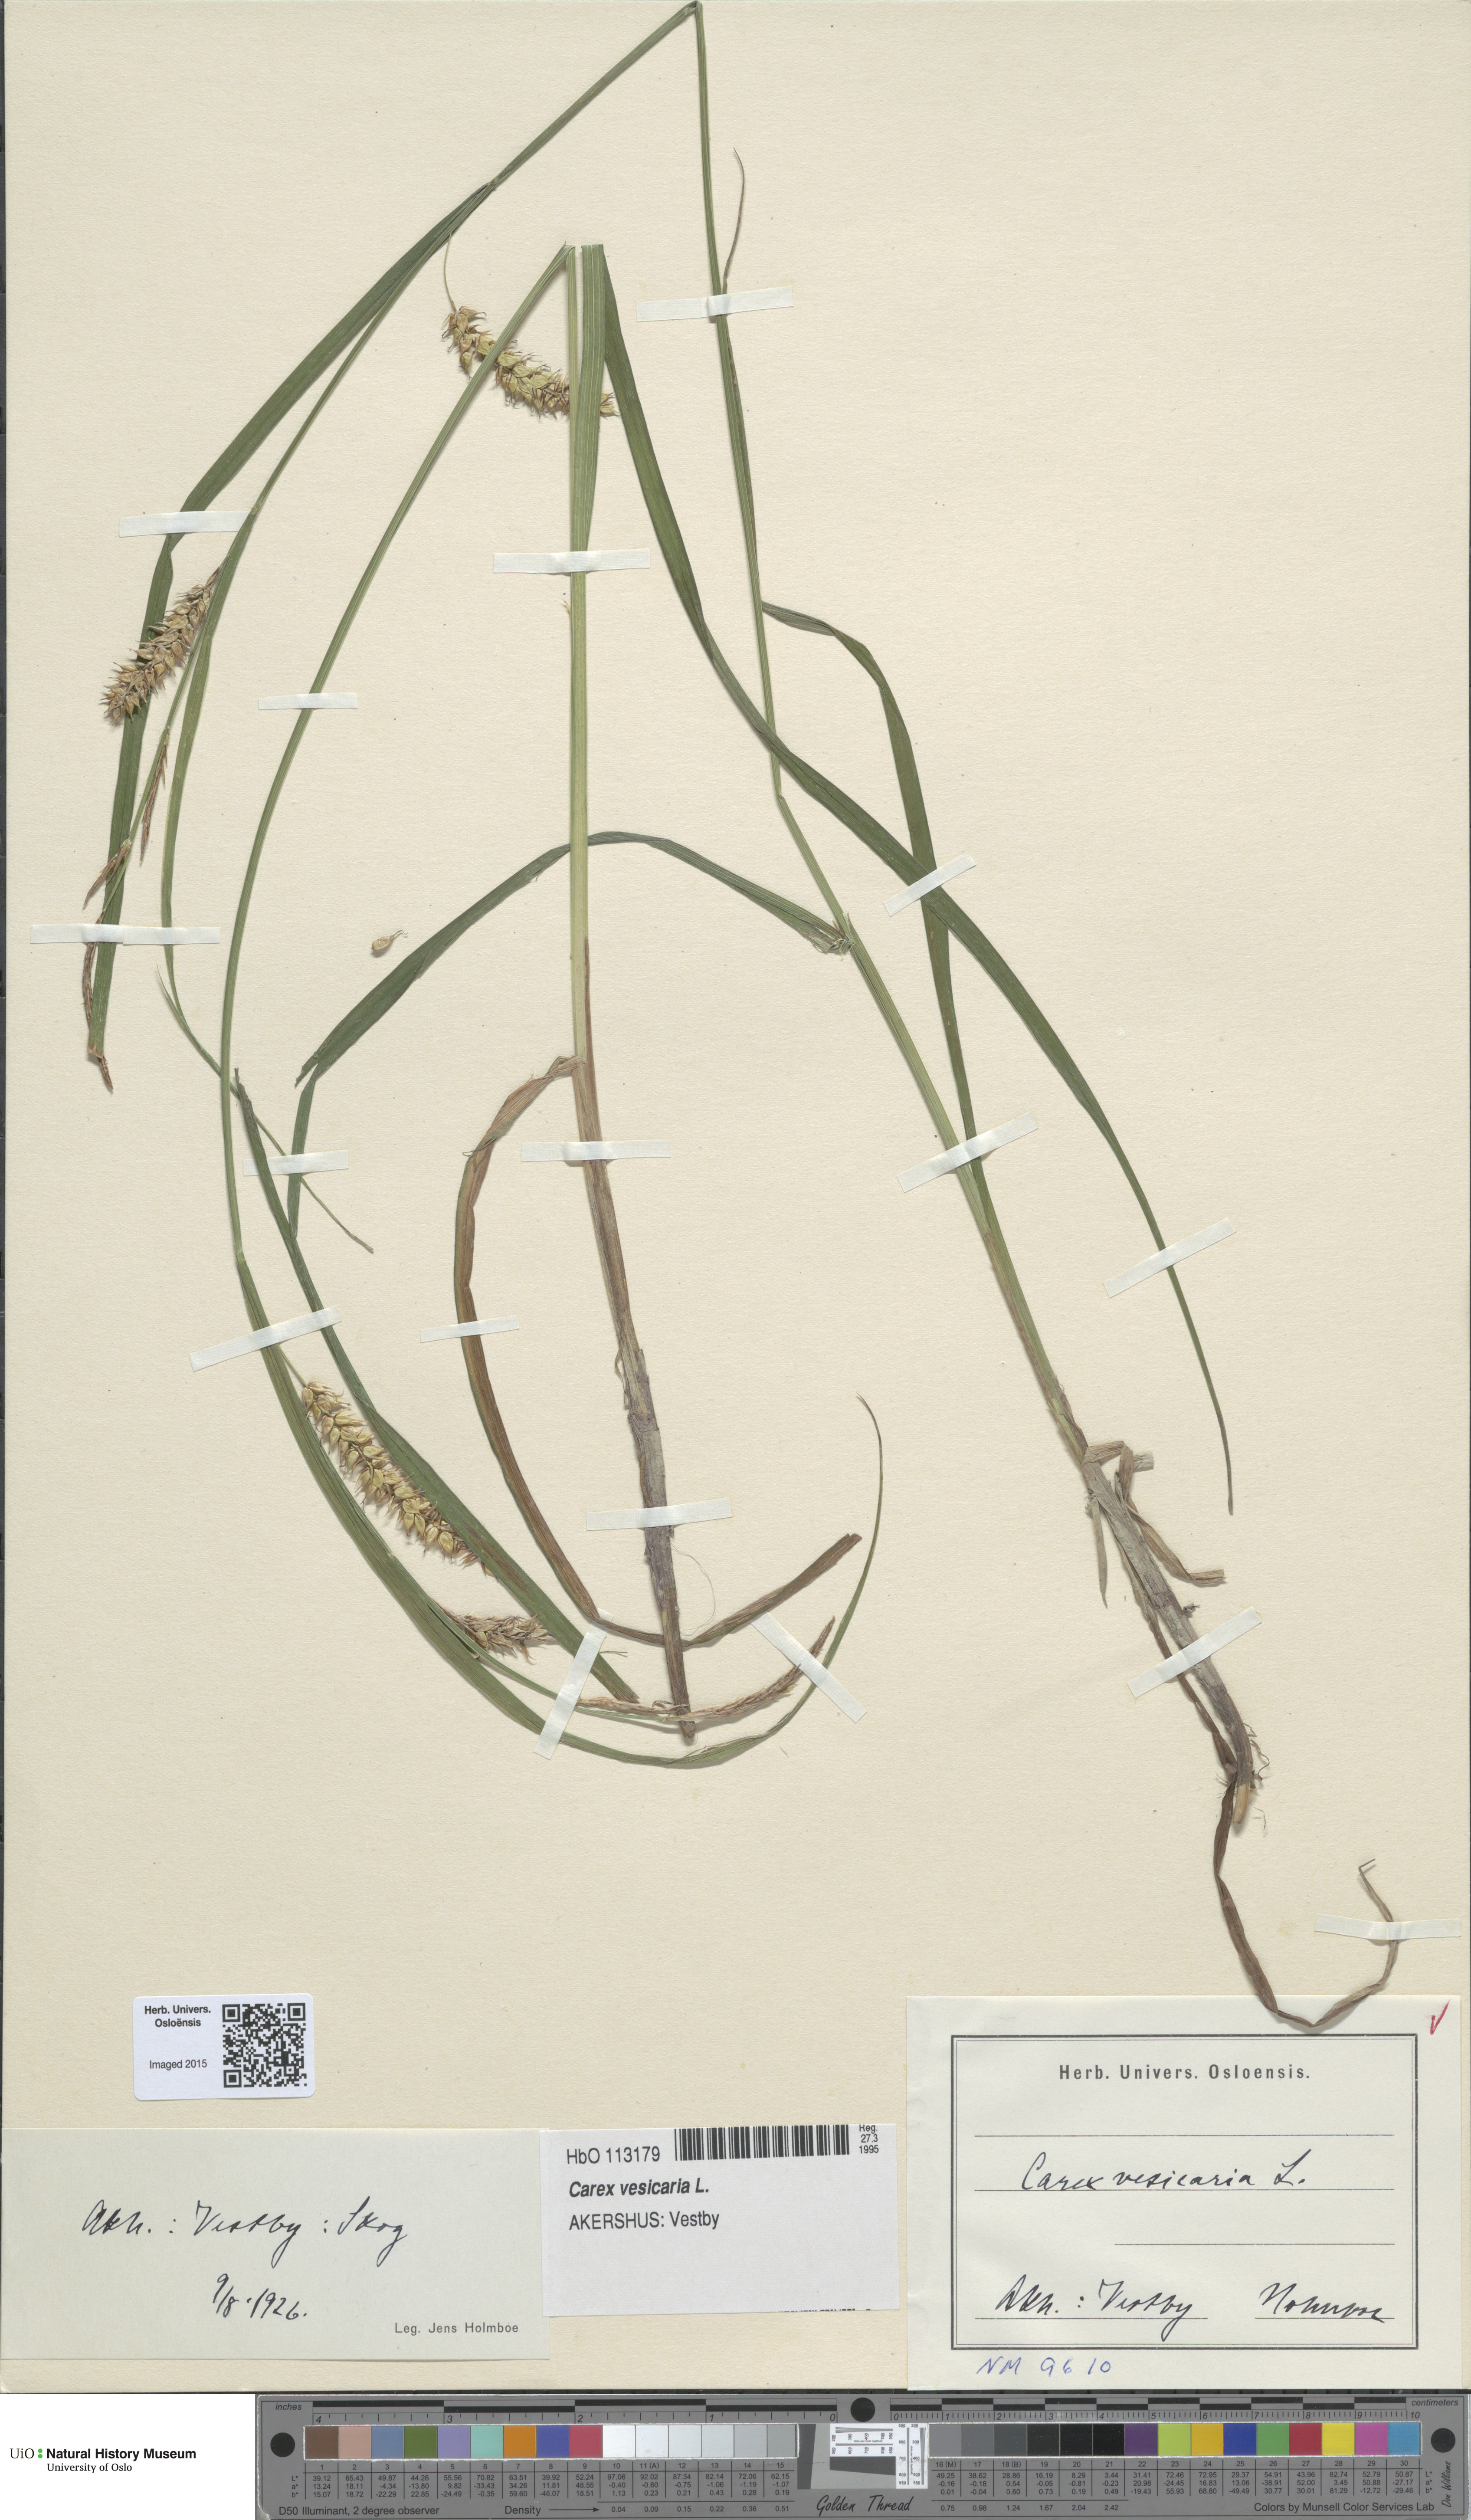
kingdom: Plantae
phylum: Tracheophyta
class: Liliopsida
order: Poales
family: Cyperaceae
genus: Carex
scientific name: Carex vesicaria
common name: Bladder-sedge
